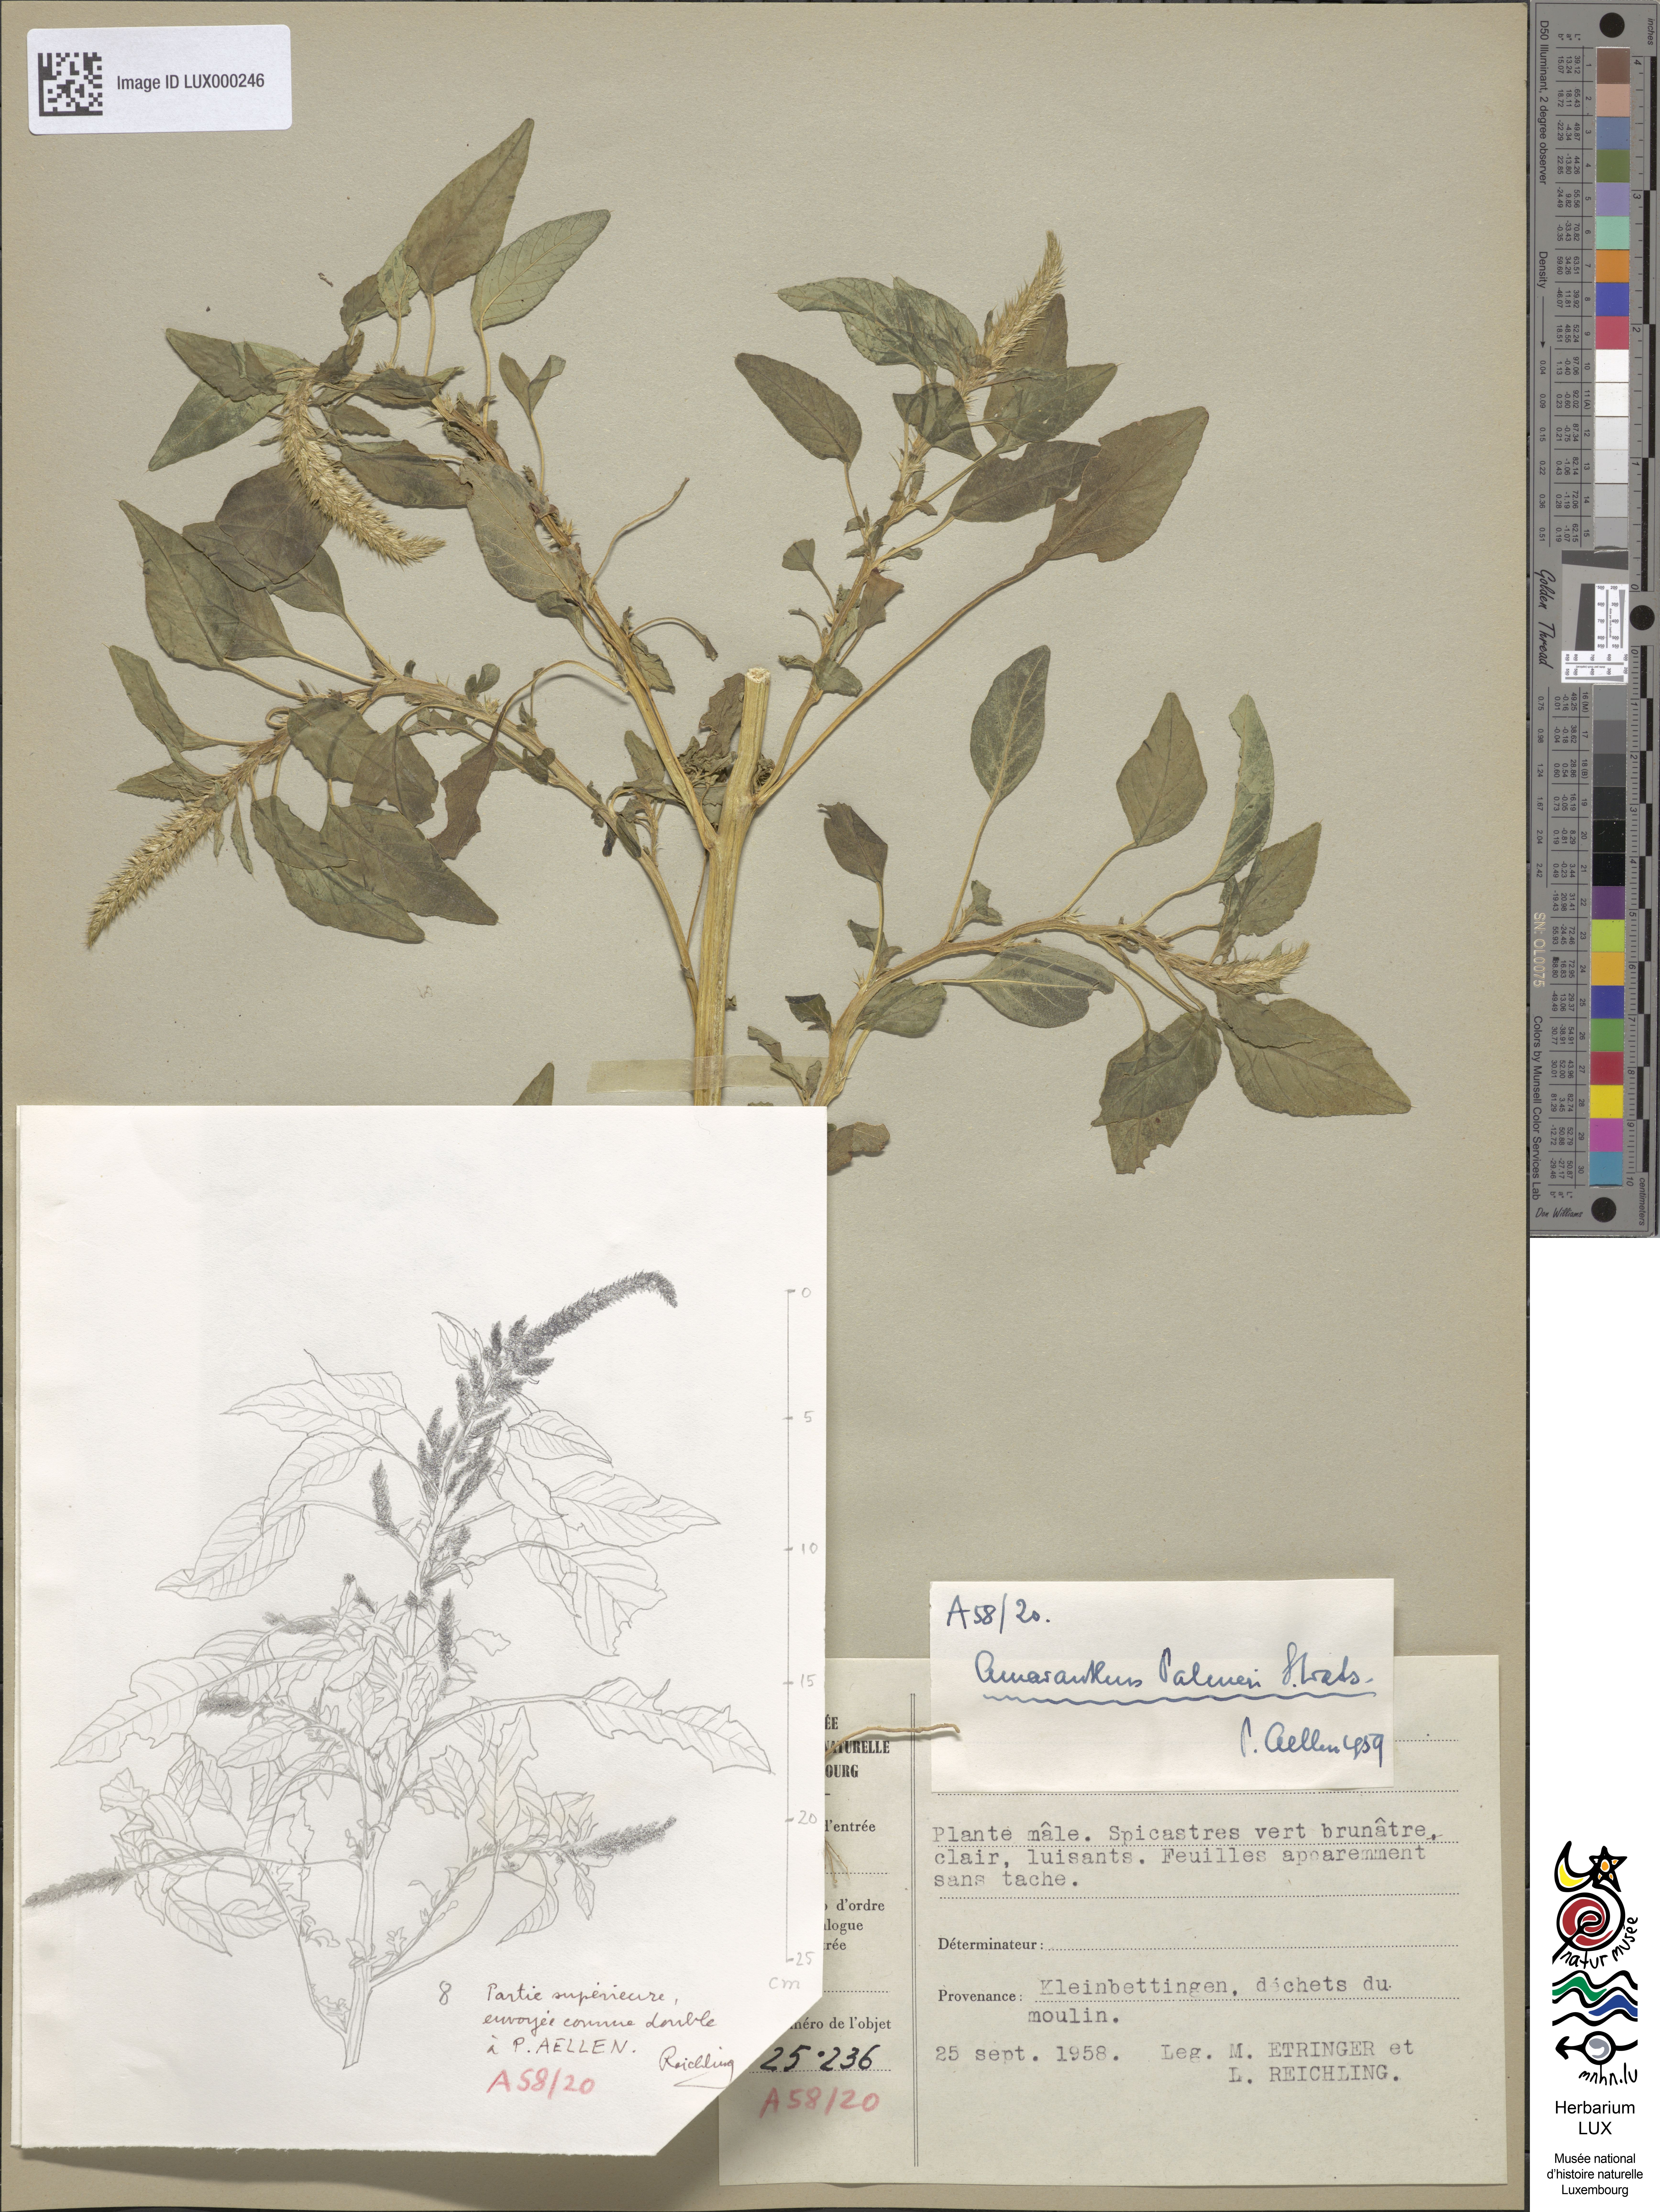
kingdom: Plantae
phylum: Tracheophyta
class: Magnoliopsida
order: Caryophyllales
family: Amaranthaceae
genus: Amaranthus
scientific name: Amaranthus palmeri
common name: Dioecious amaranth
